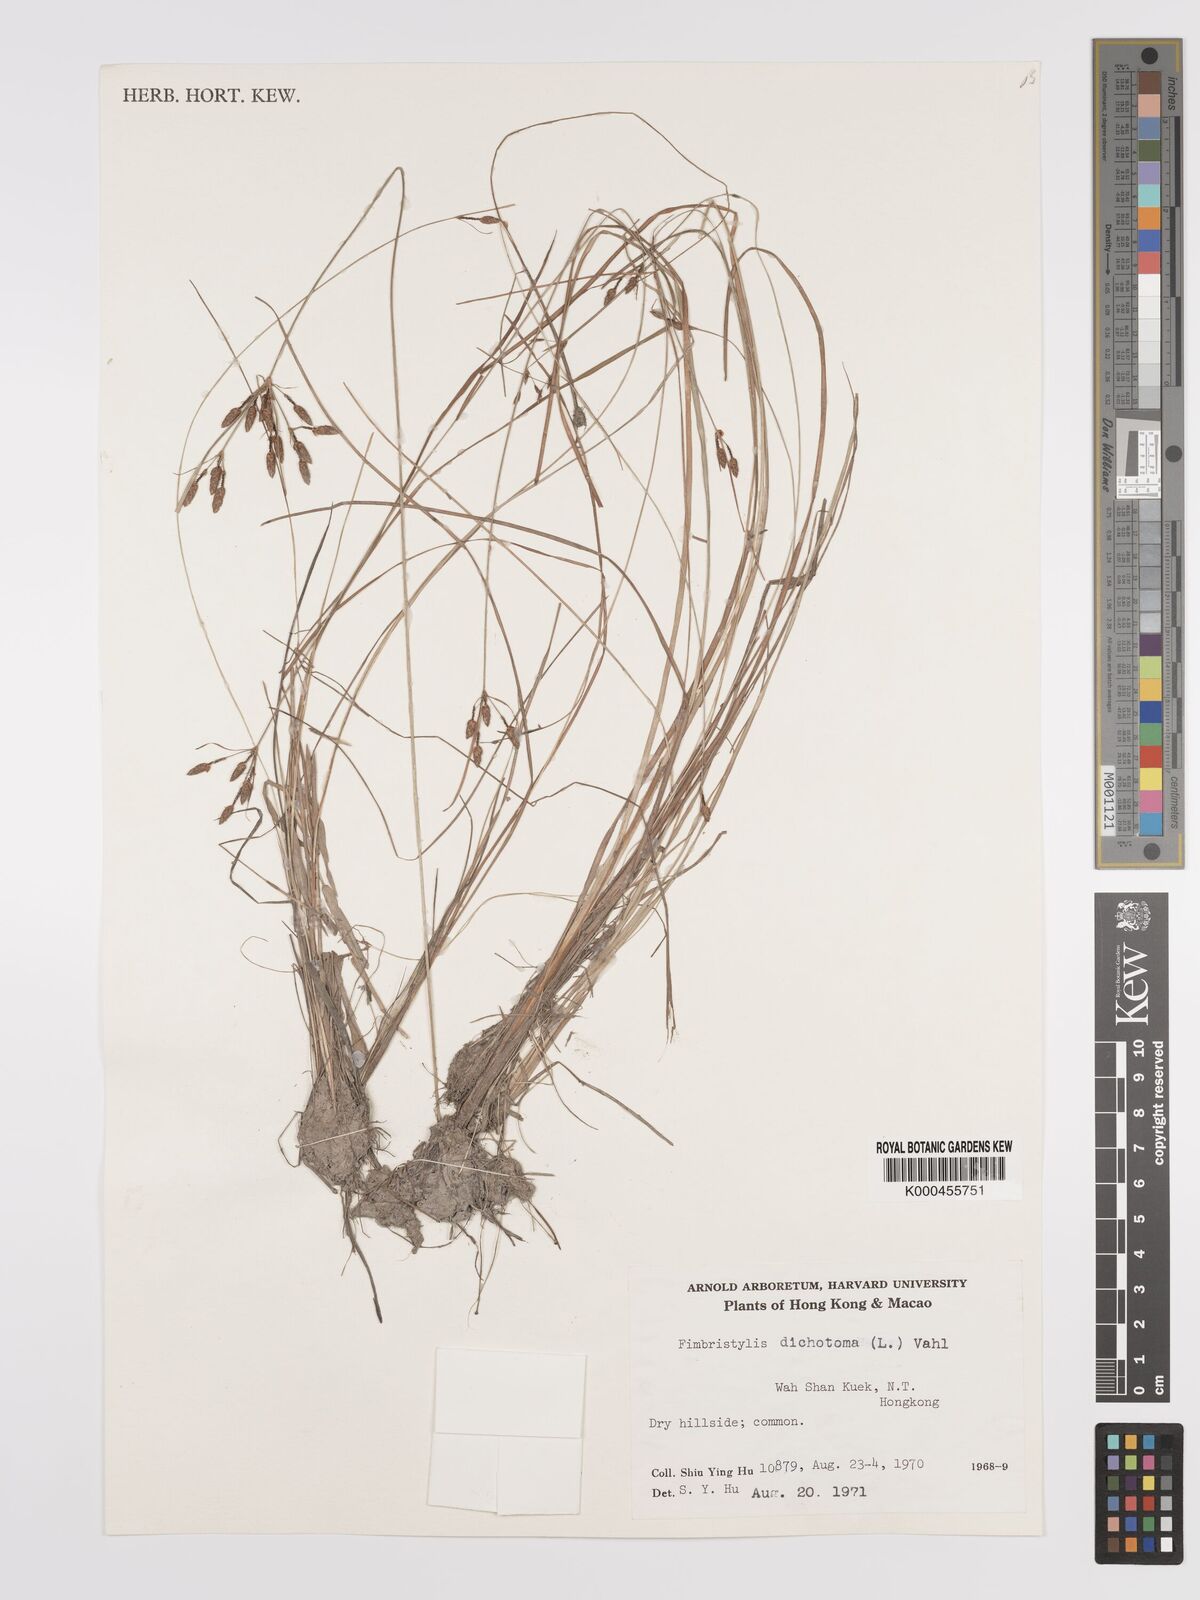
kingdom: Plantae
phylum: Tracheophyta
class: Liliopsida
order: Poales
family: Cyperaceae
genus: Fimbristylis
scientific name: Fimbristylis dichotoma
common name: Forked fimbry
